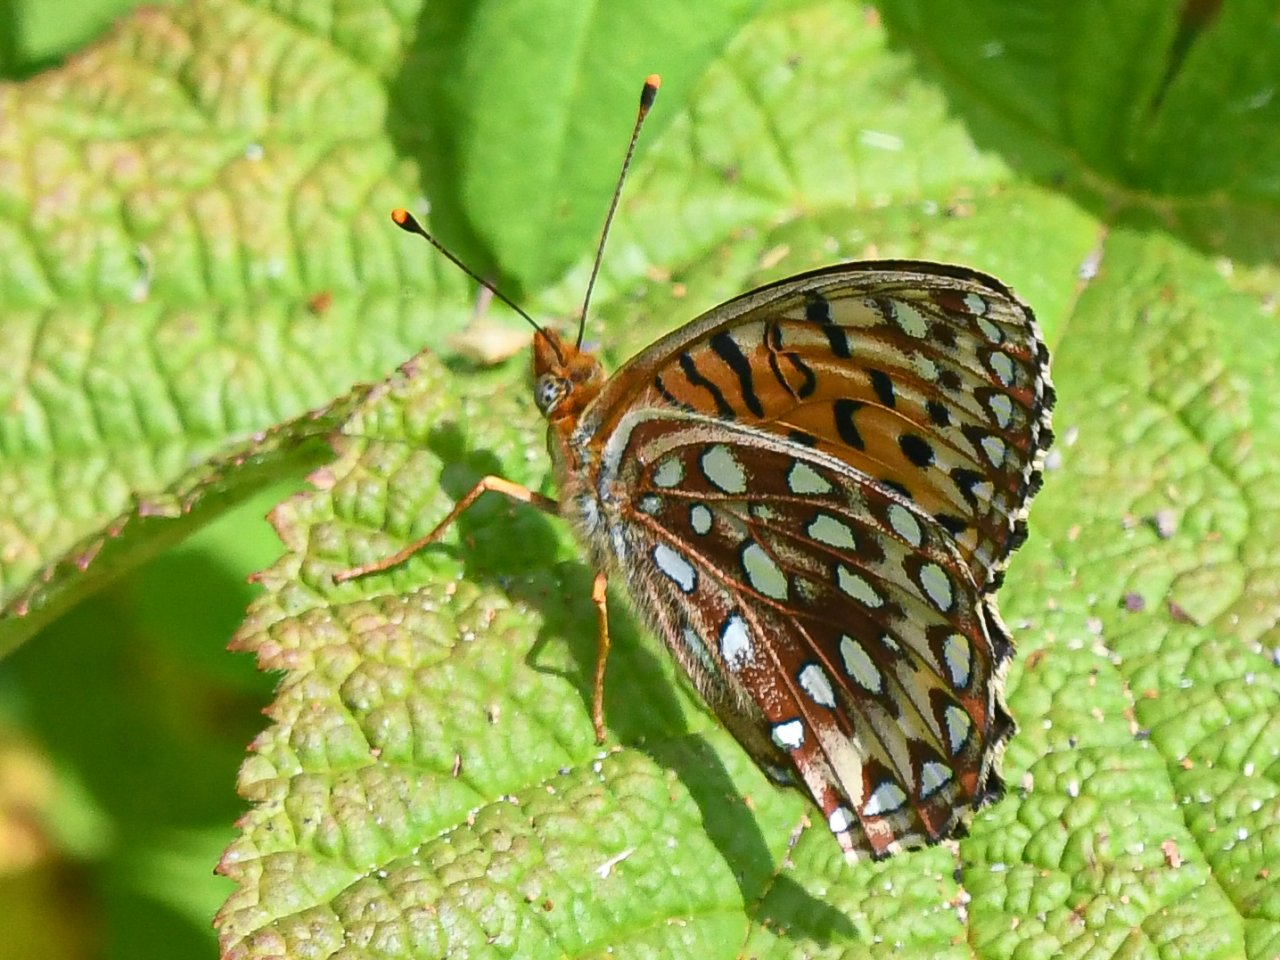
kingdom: Animalia
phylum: Arthropoda
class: Insecta
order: Lepidoptera
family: Nymphalidae
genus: Speyeria
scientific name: Speyeria atlantis
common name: Northwestern Fritillary
